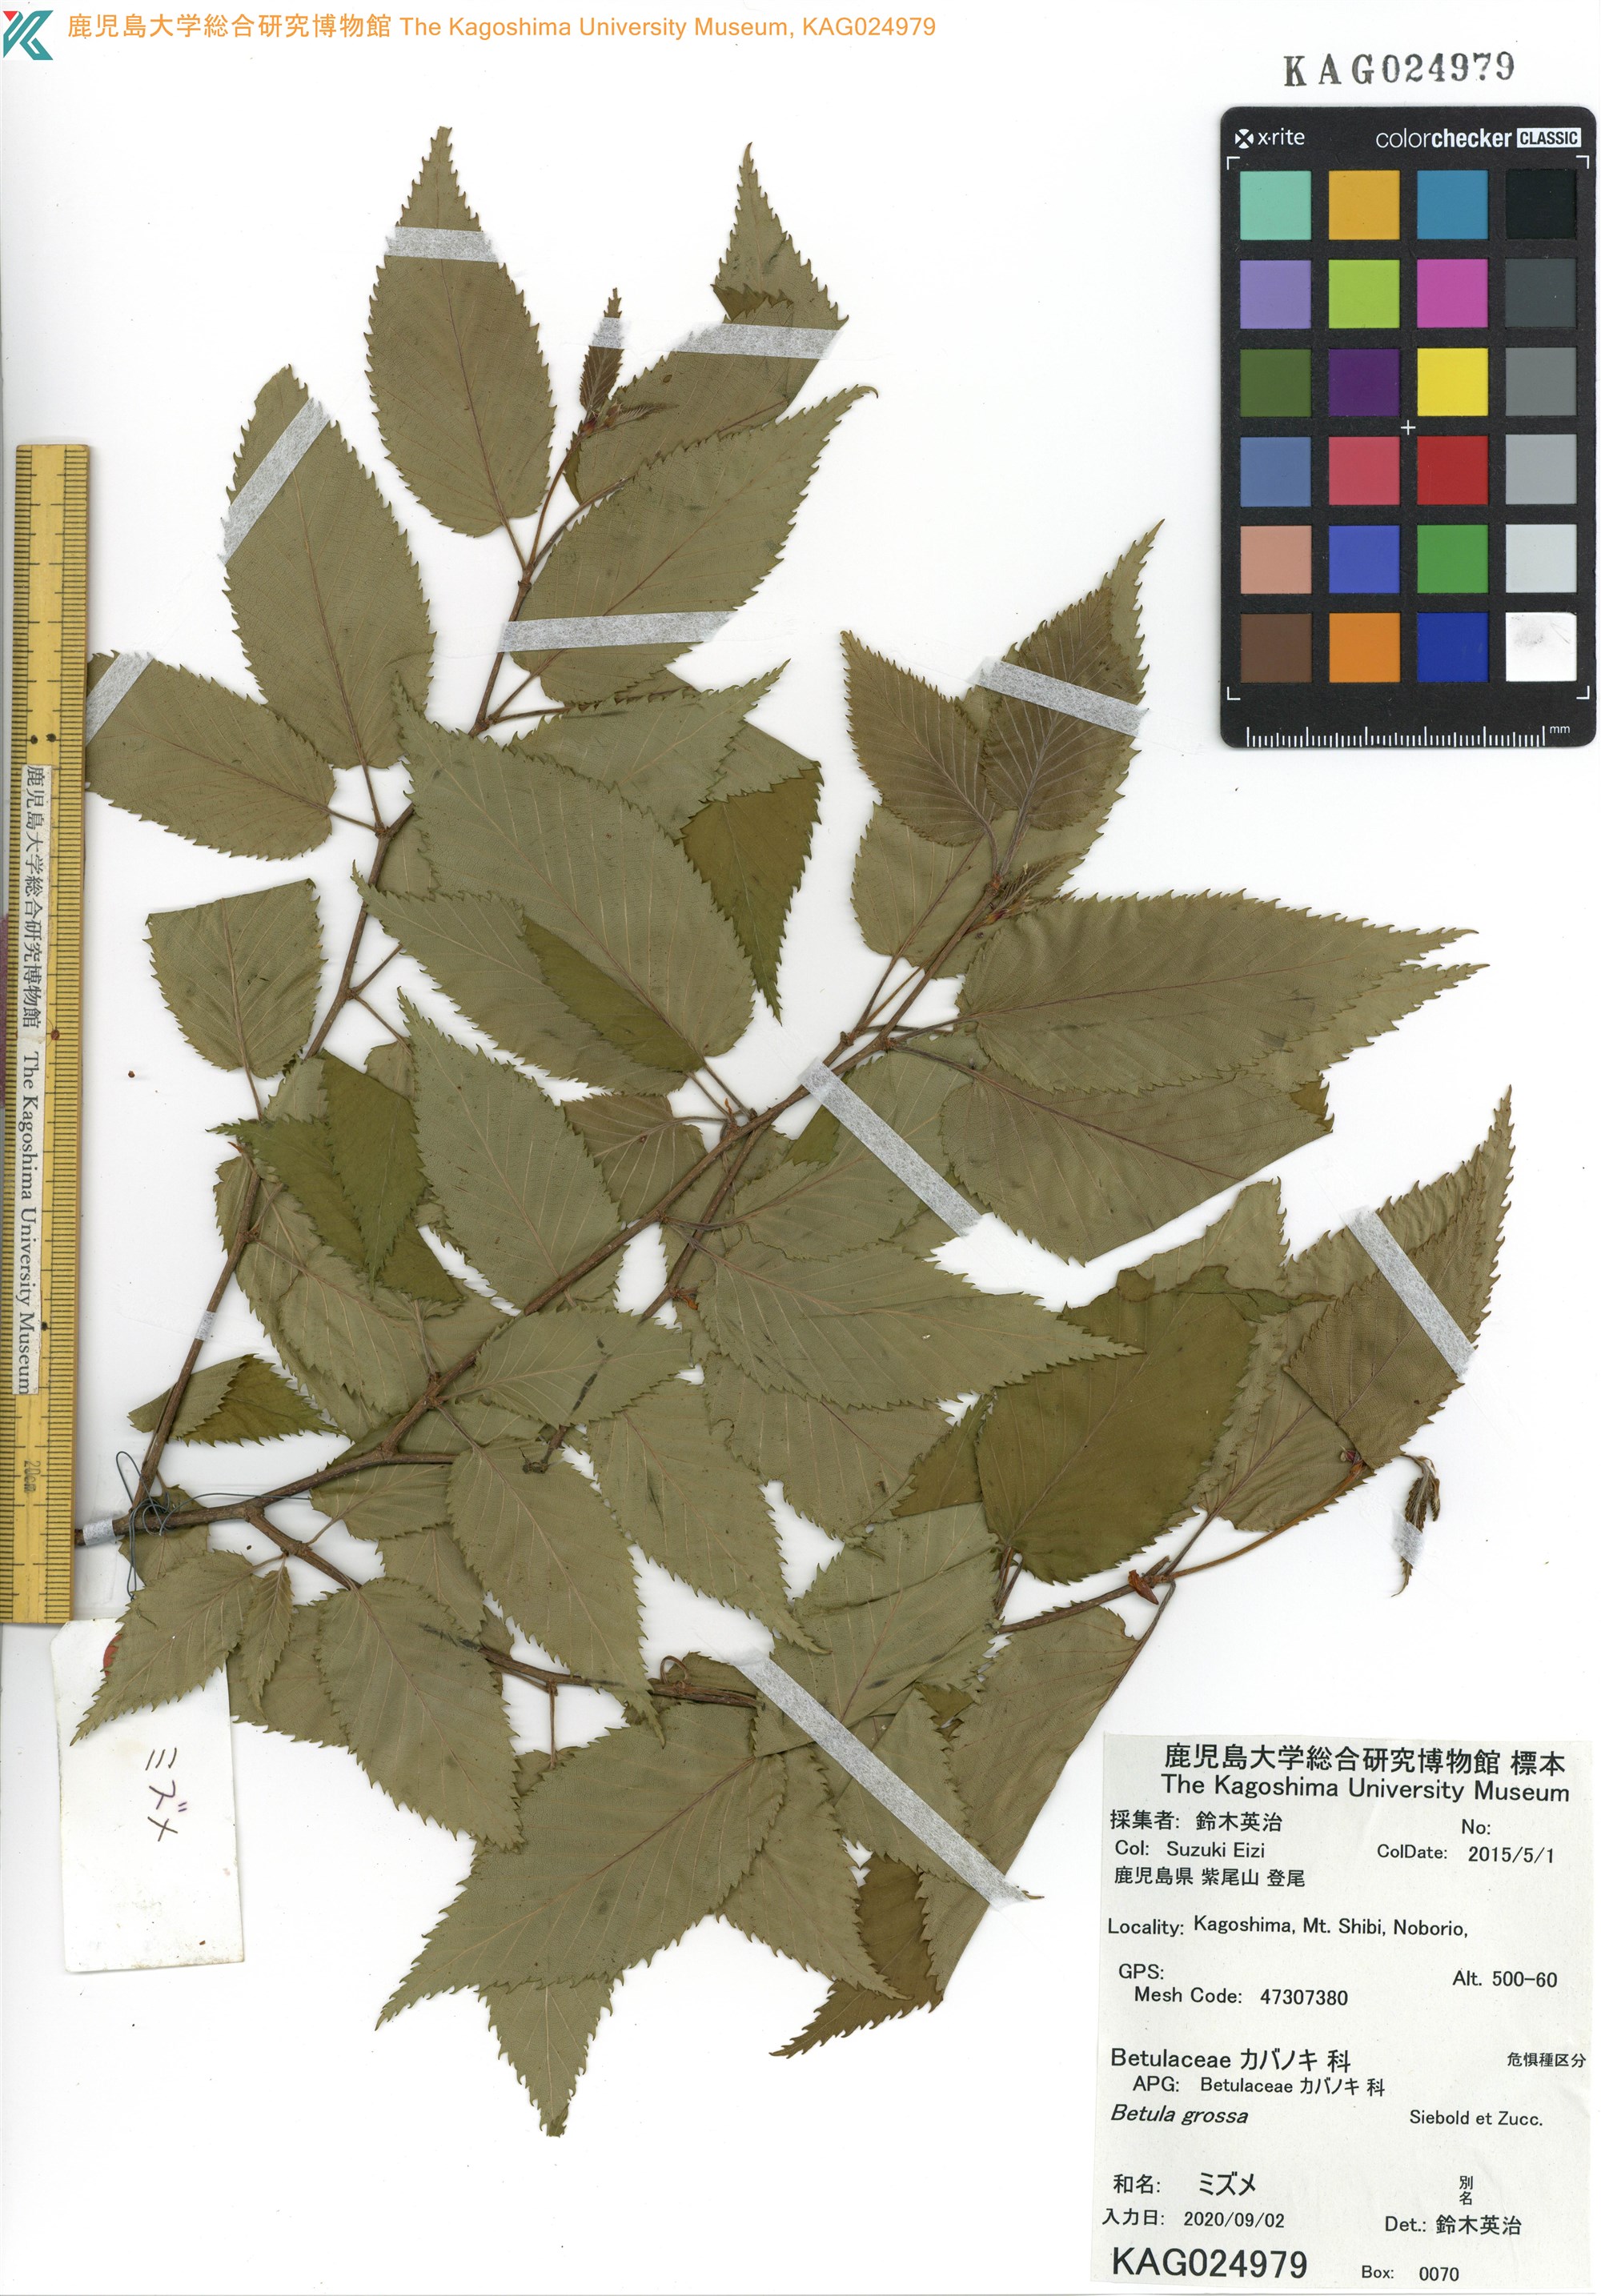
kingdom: Plantae
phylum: Tracheophyta
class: Magnoliopsida
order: Fagales
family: Betulaceae
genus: Betula
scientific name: Betula grossa
